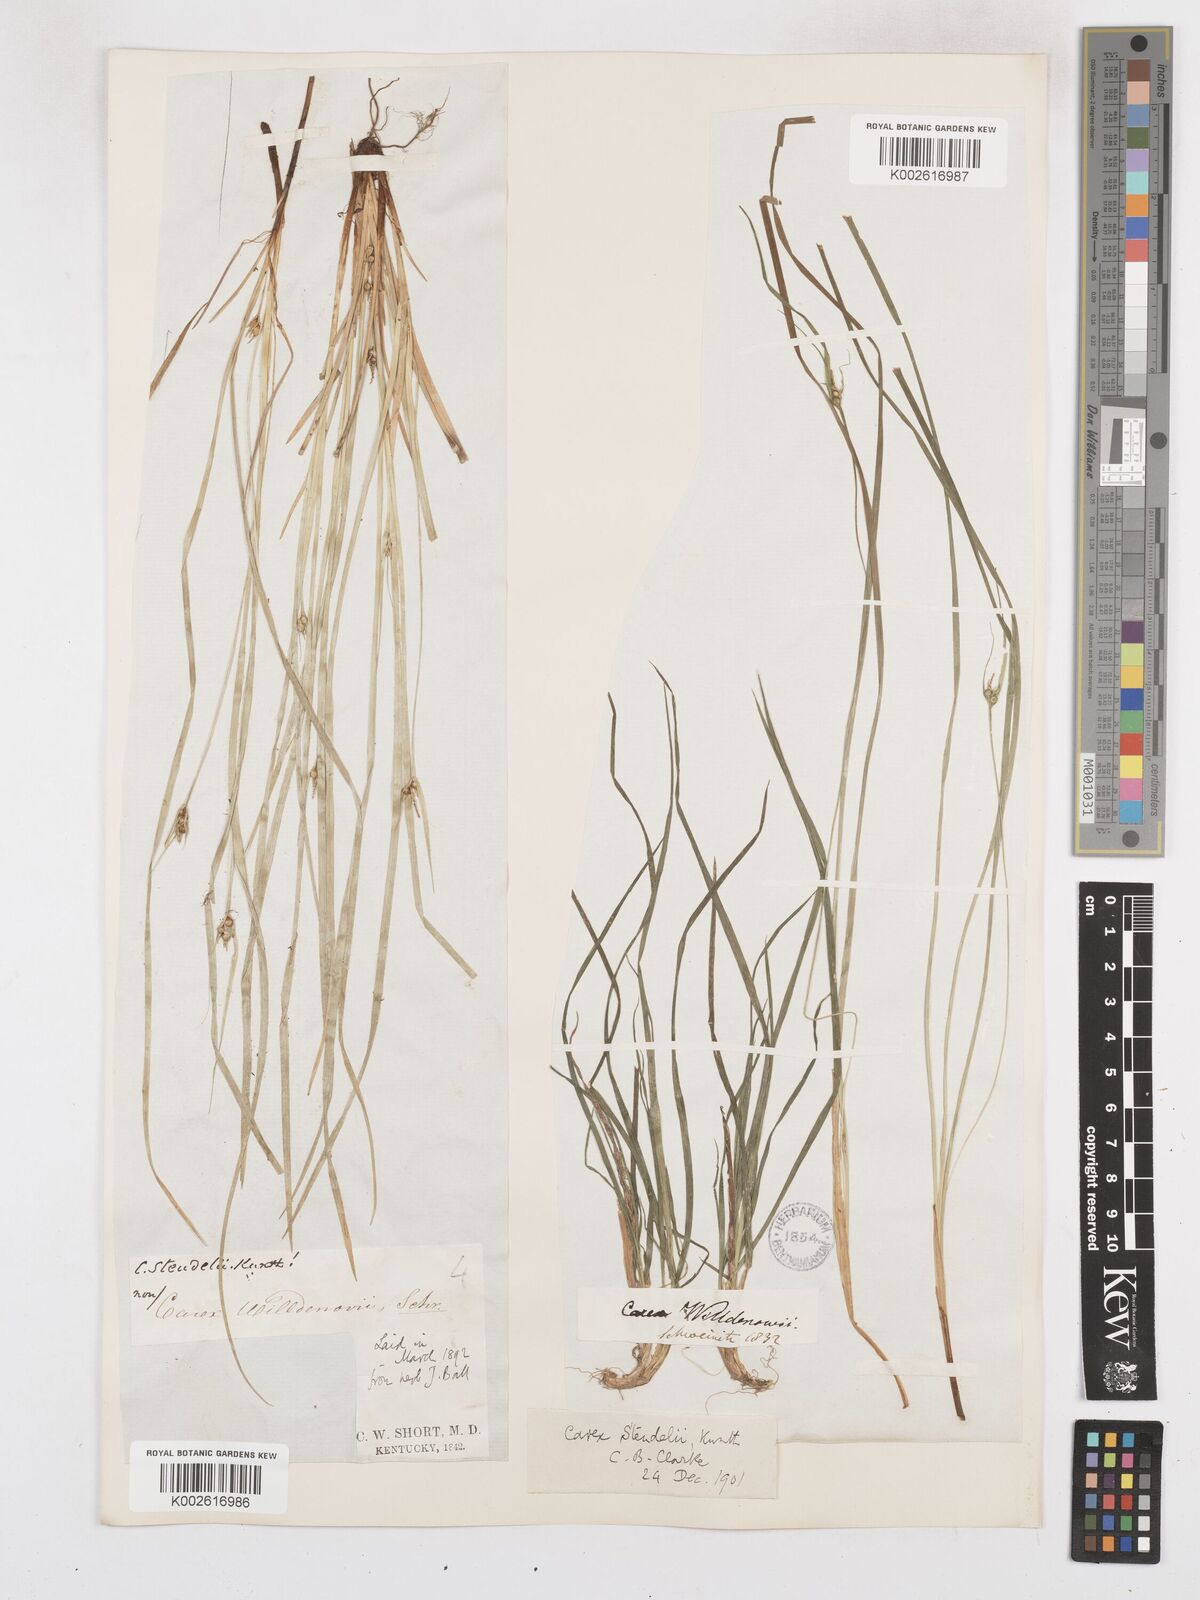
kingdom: Plantae
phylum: Tracheophyta
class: Liliopsida
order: Poales
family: Cyperaceae
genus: Carex
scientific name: Carex jamesii
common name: Grass sedge
